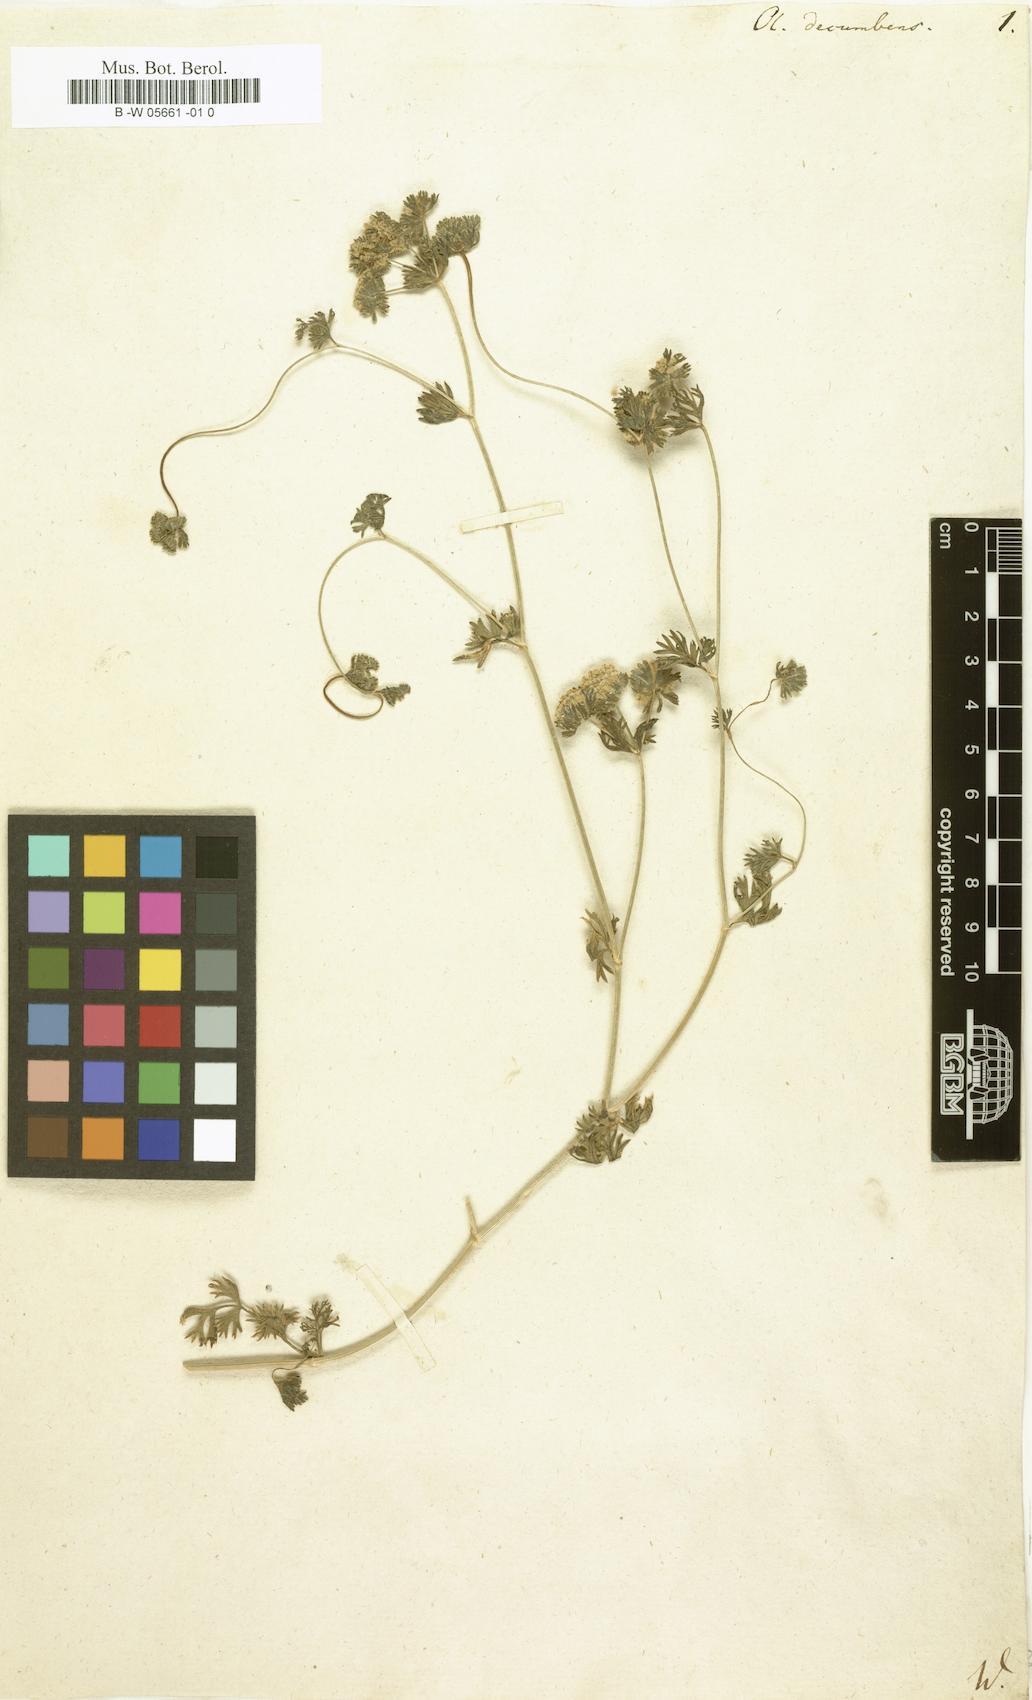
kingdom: Plantae
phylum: Tracheophyta
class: Magnoliopsida
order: Apiales
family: Apiaceae
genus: Oliveria
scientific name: Oliveria decumbens
